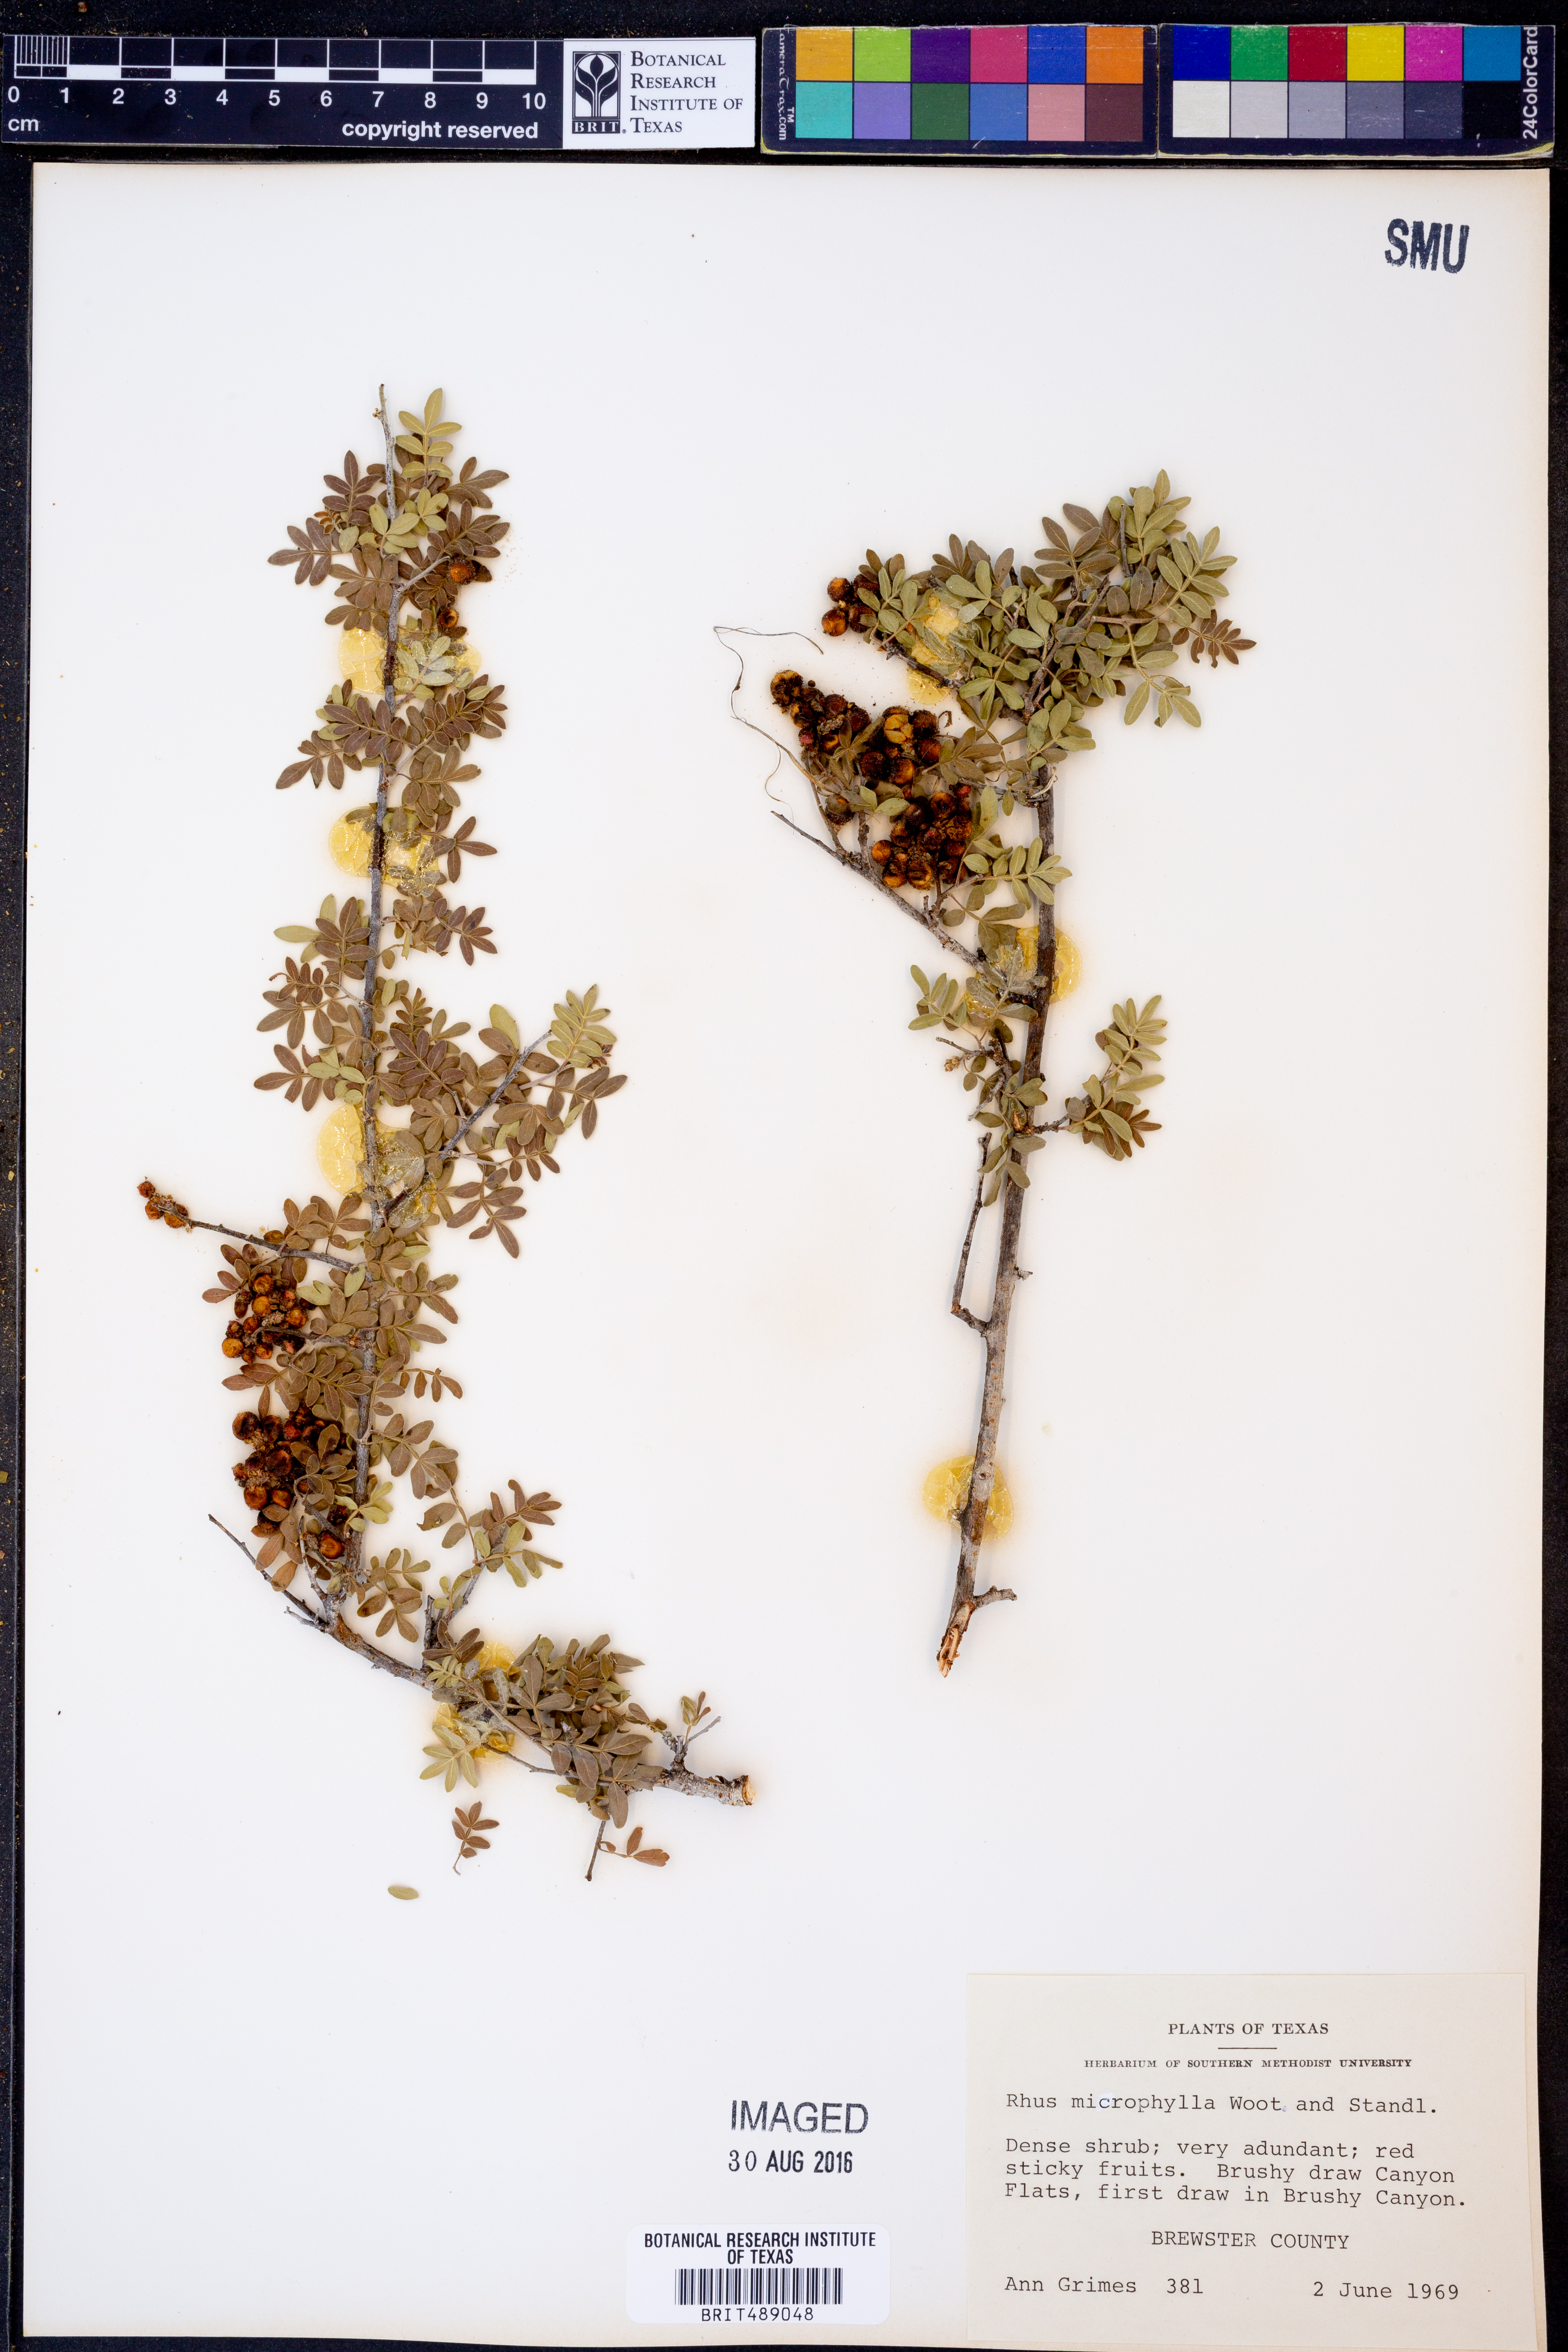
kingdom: Plantae
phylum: Tracheophyta
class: Magnoliopsida
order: Sapindales
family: Anacardiaceae
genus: Rhus
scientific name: Rhus microphylla
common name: Desert sumac
